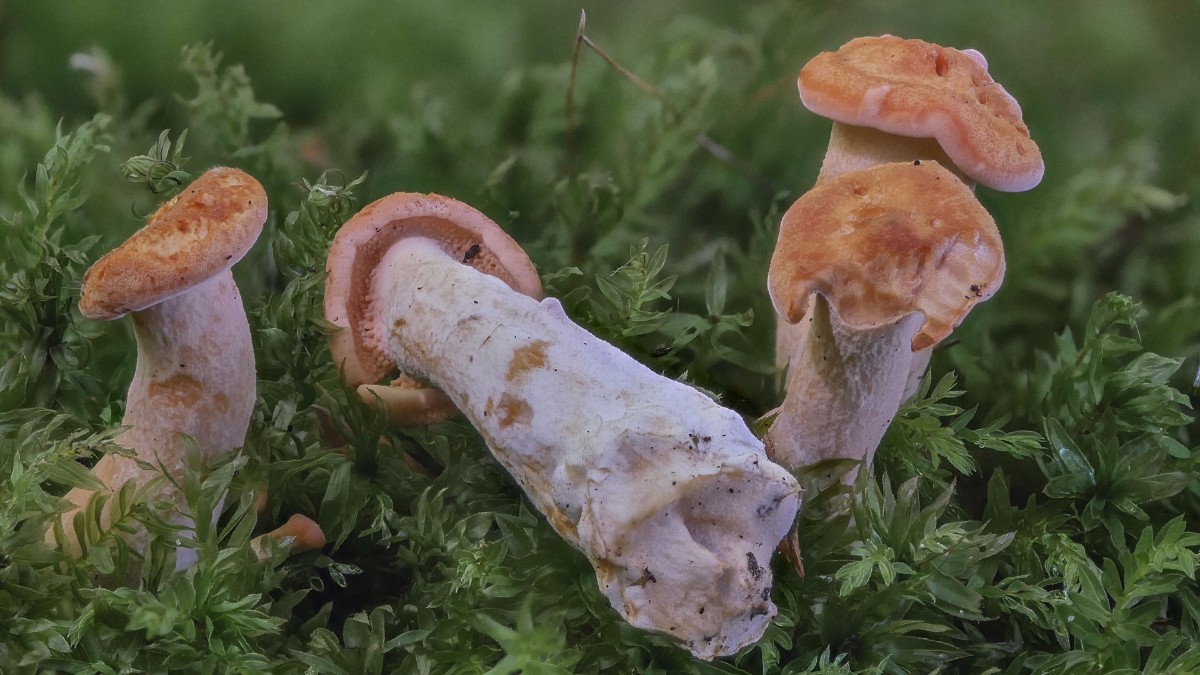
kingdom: Fungi
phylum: Basidiomycota
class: Agaricomycetes
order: Cantharellales
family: Hydnaceae
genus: Hydnum
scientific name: Hydnum rufescens
